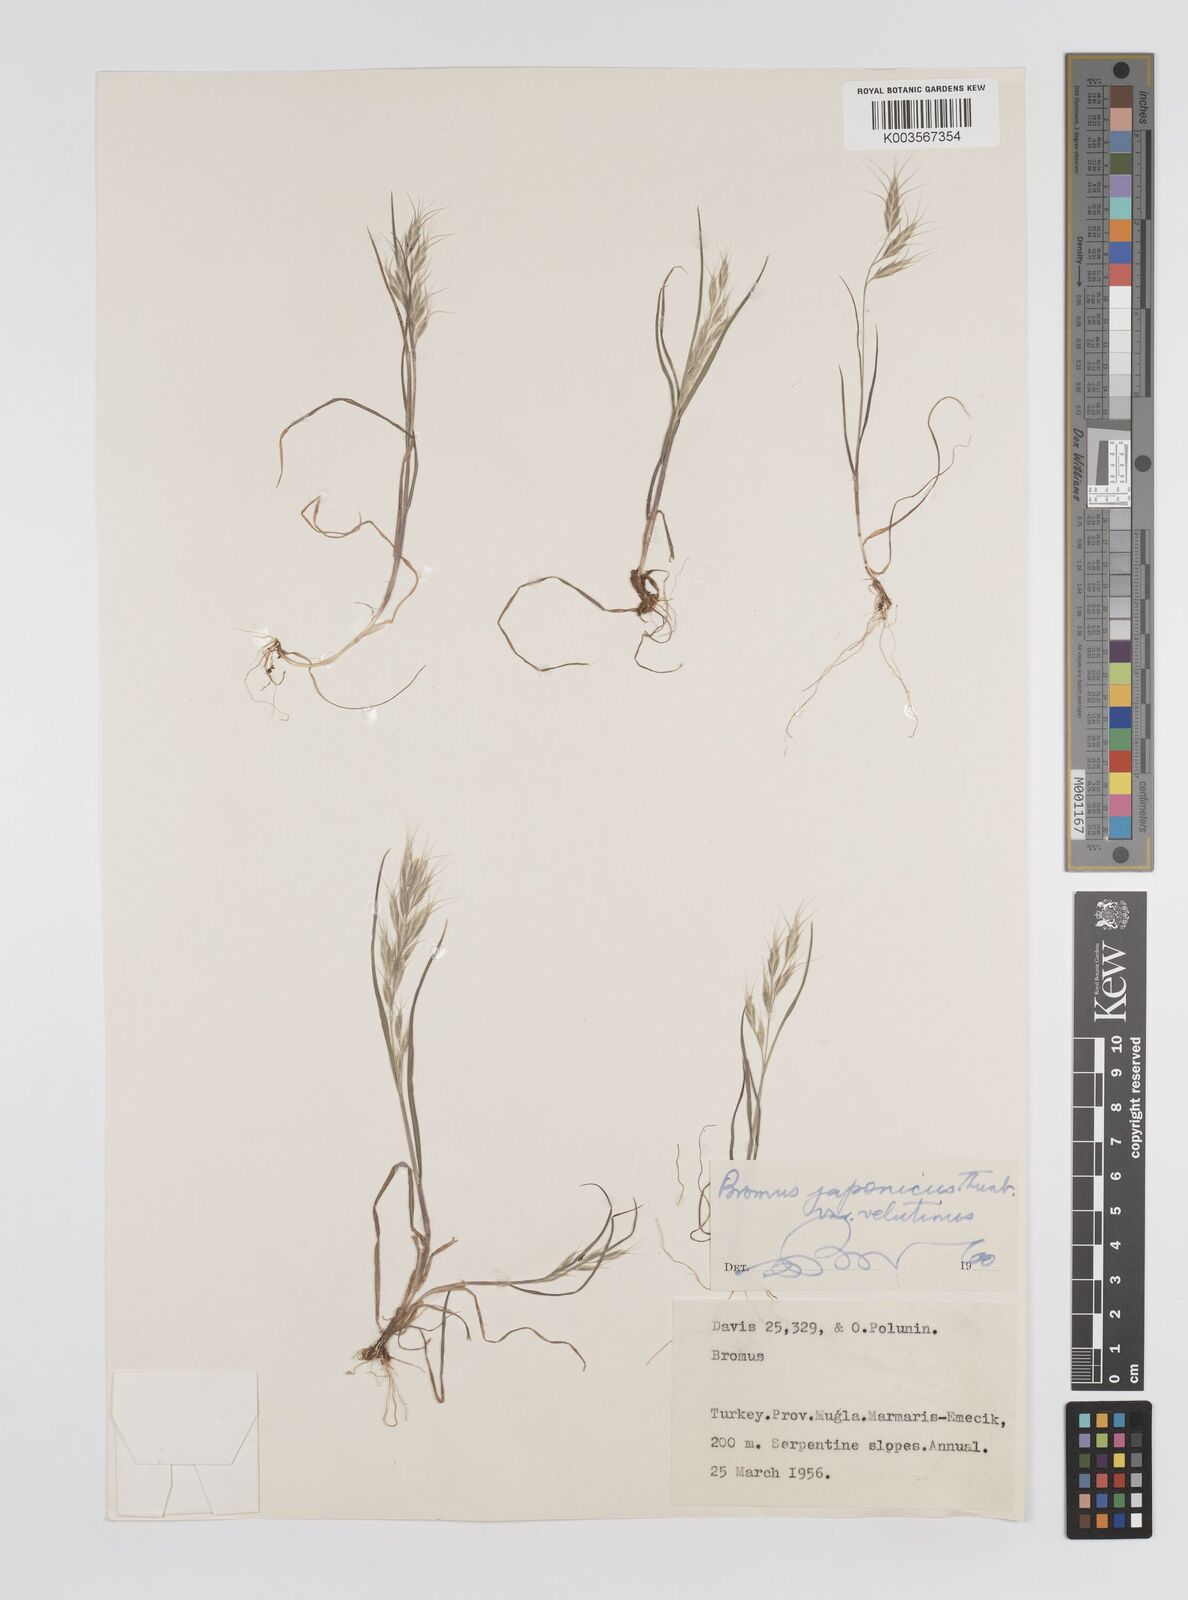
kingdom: Plantae
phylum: Tracheophyta
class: Liliopsida
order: Poales
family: Poaceae
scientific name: Poaceae
